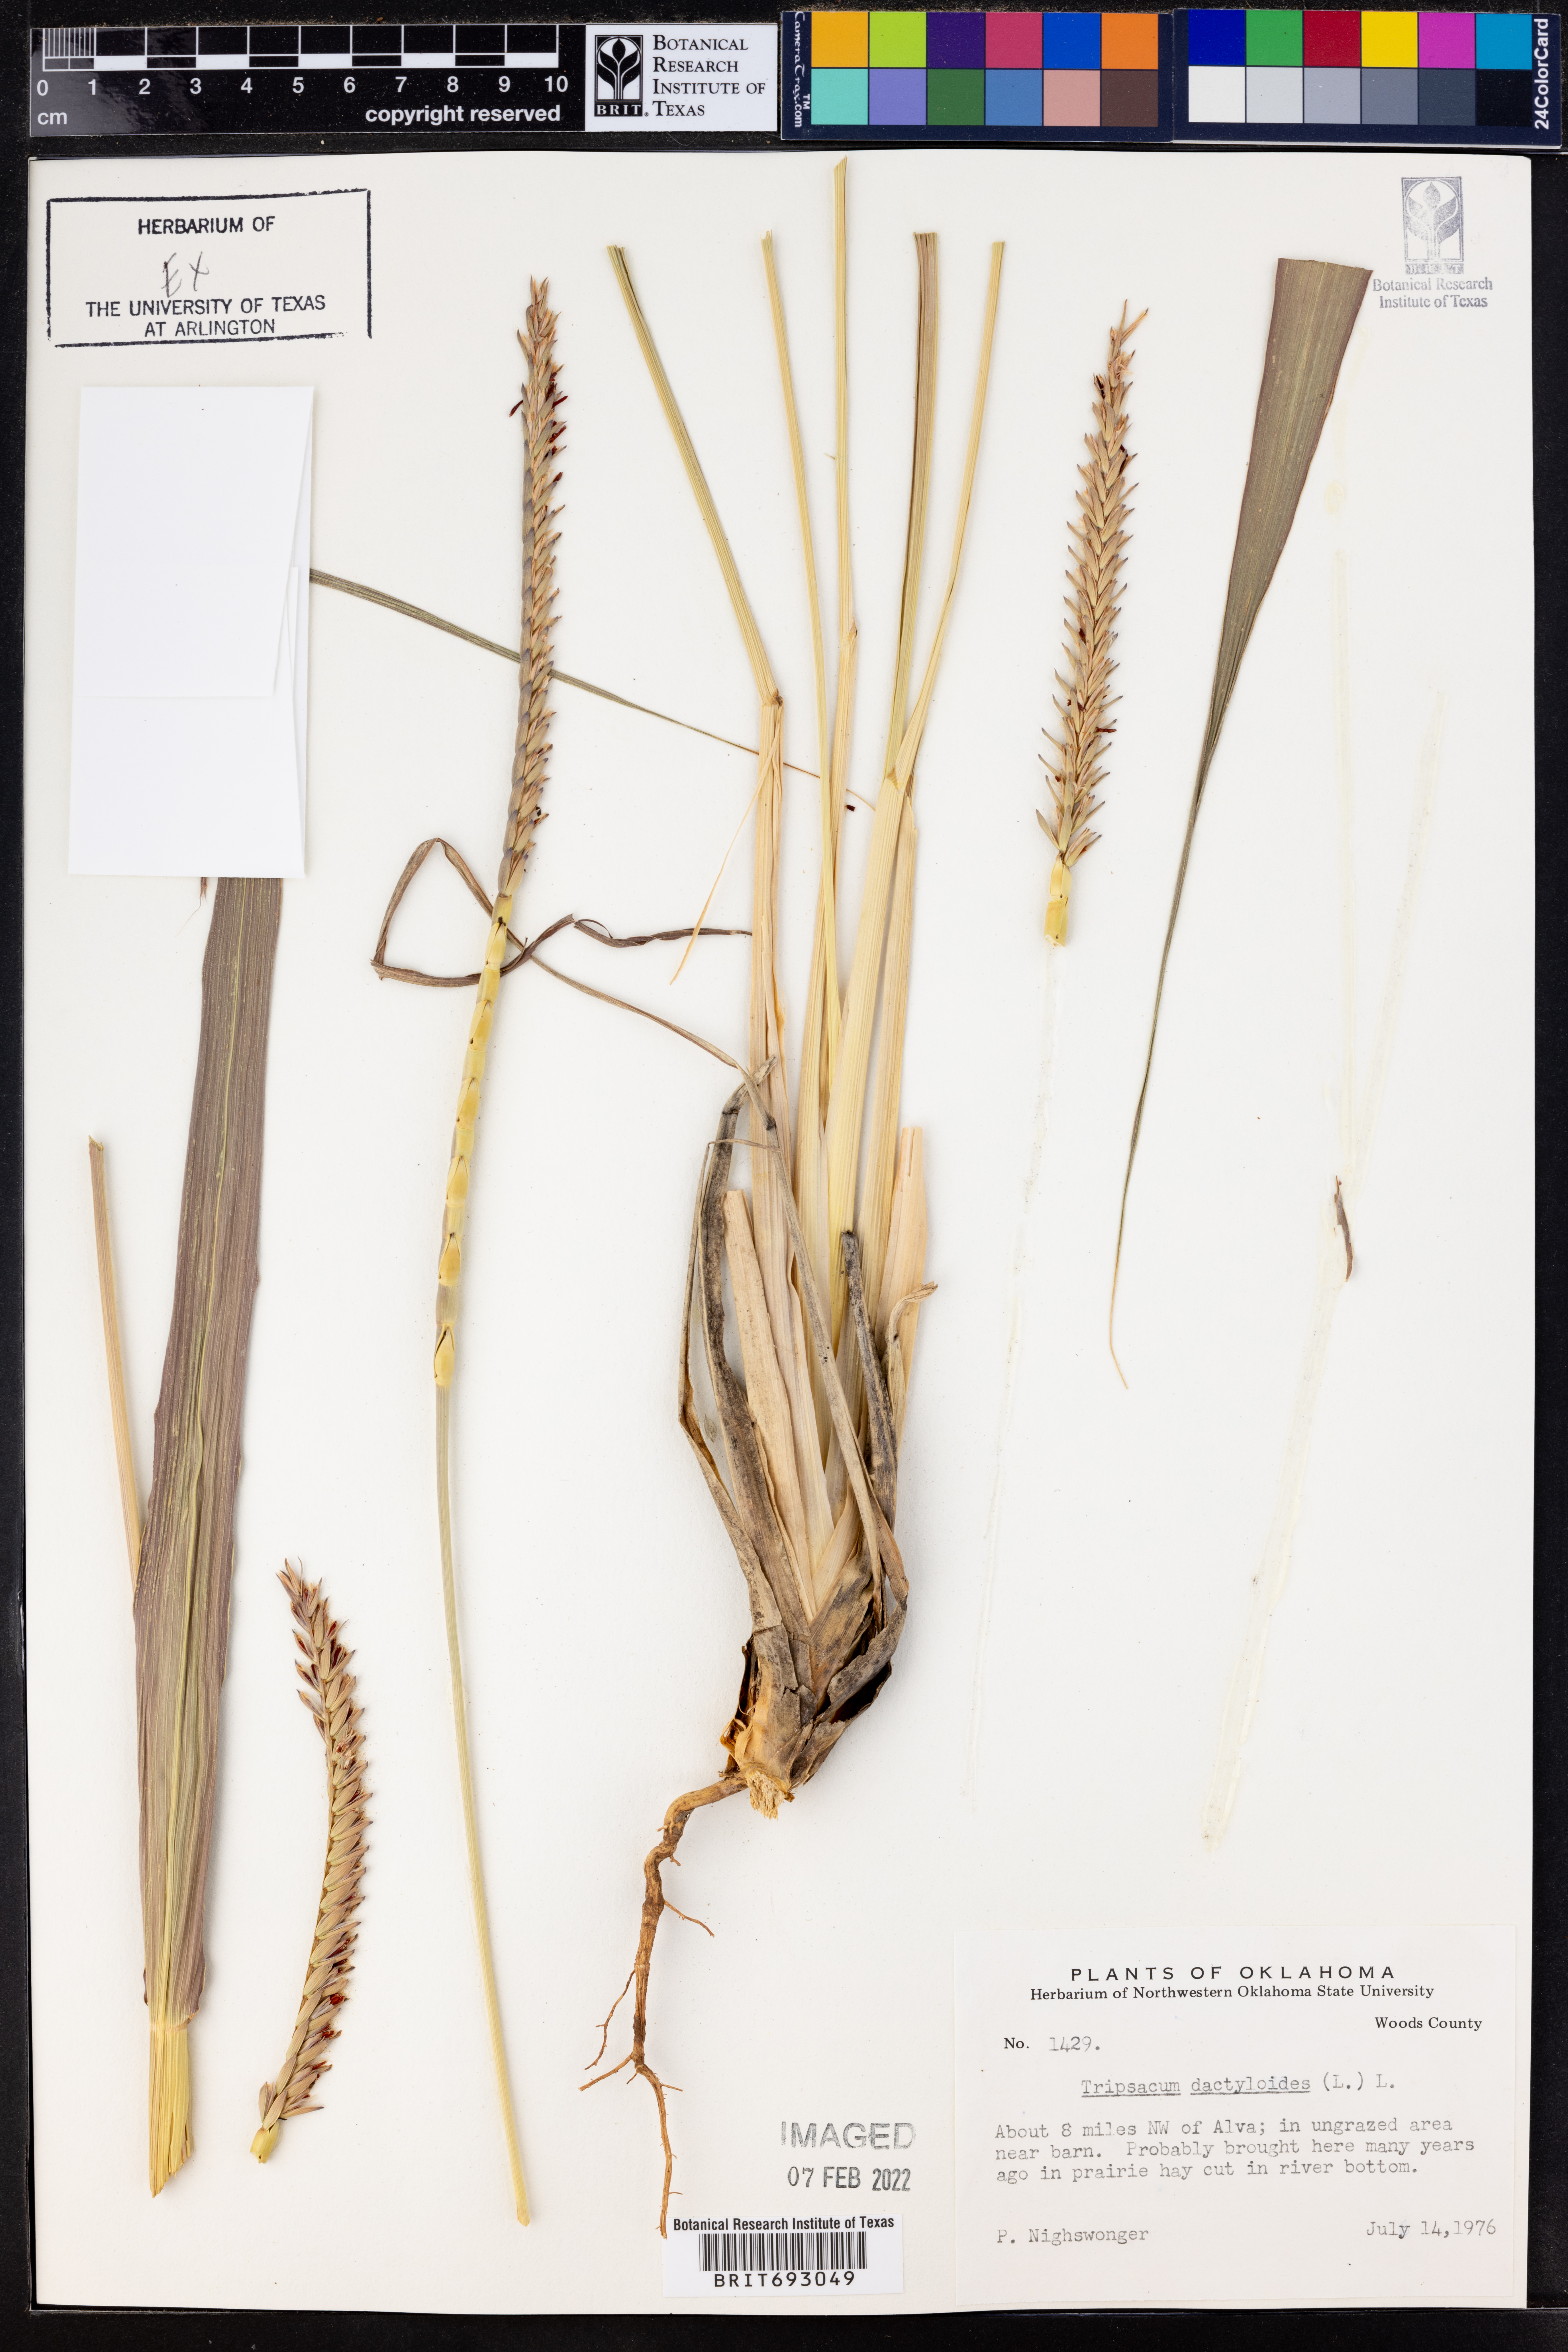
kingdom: Plantae
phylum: Tracheophyta
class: Liliopsida
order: Poales
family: Poaceae
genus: Tripsacum
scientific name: Tripsacum dactyloides
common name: Buffalo-grass
